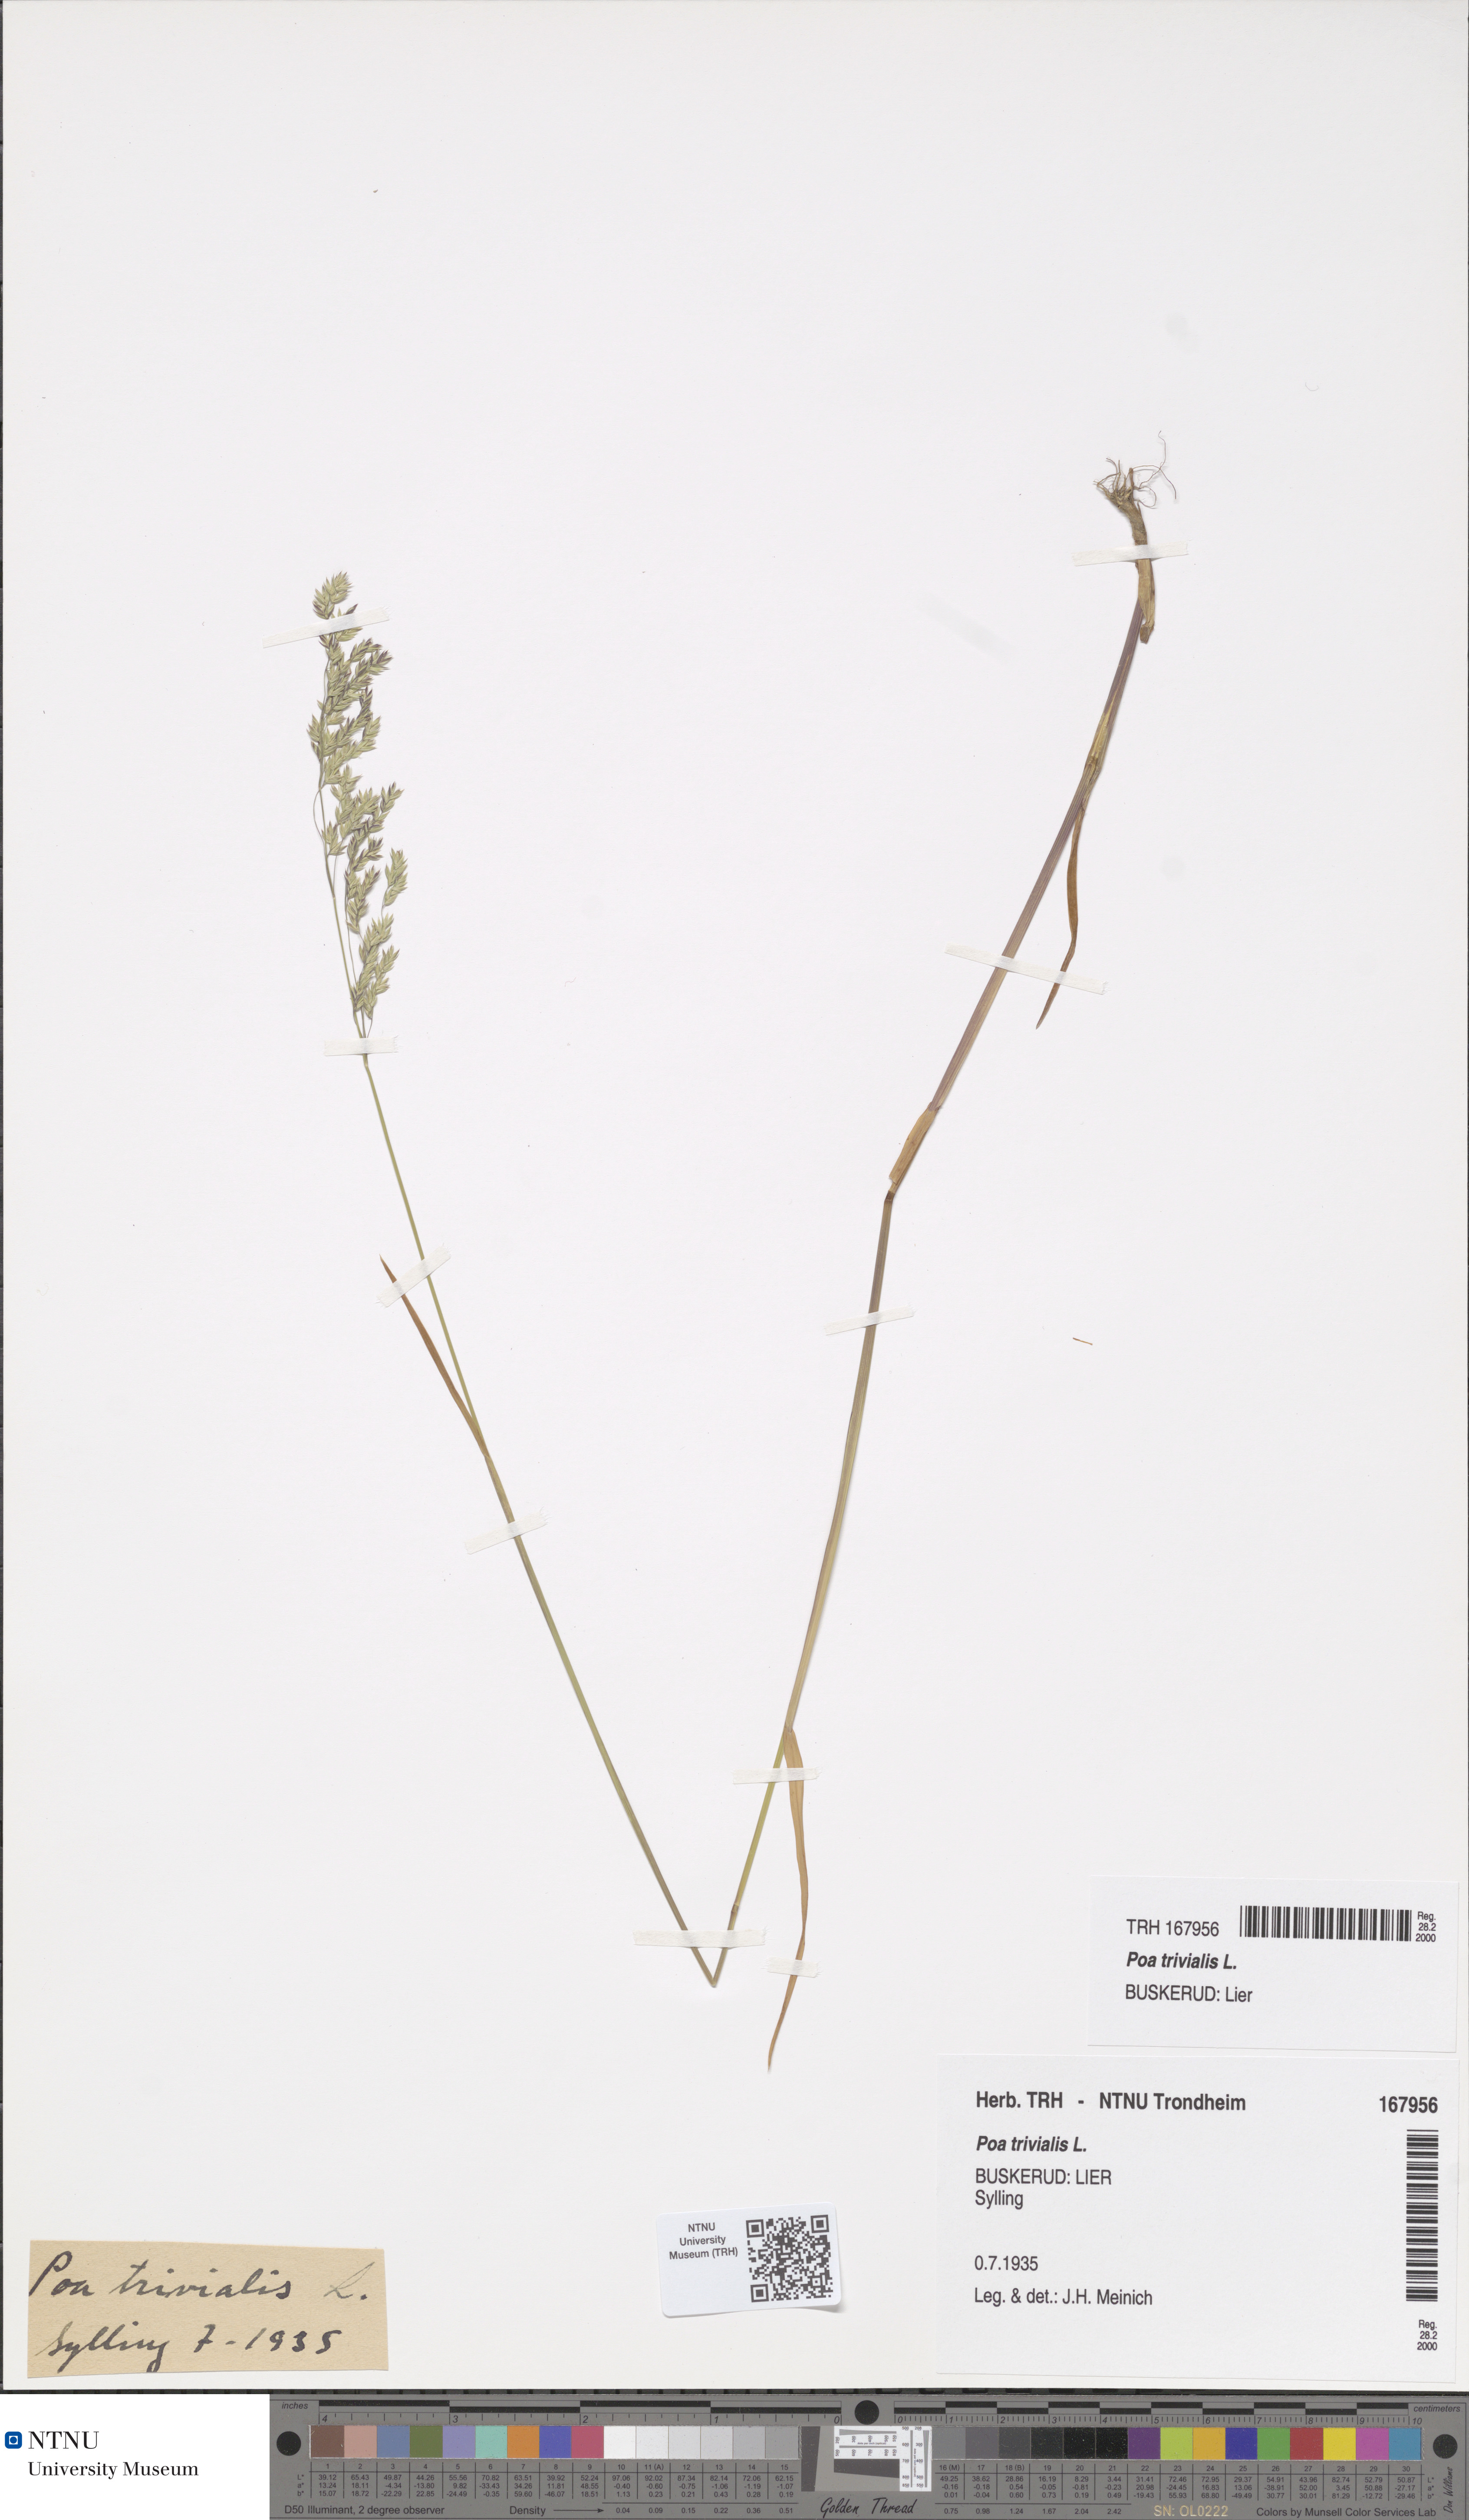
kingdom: Plantae
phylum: Tracheophyta
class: Liliopsida
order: Poales
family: Poaceae
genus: Poa
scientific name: Poa trivialis
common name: Rough bluegrass
